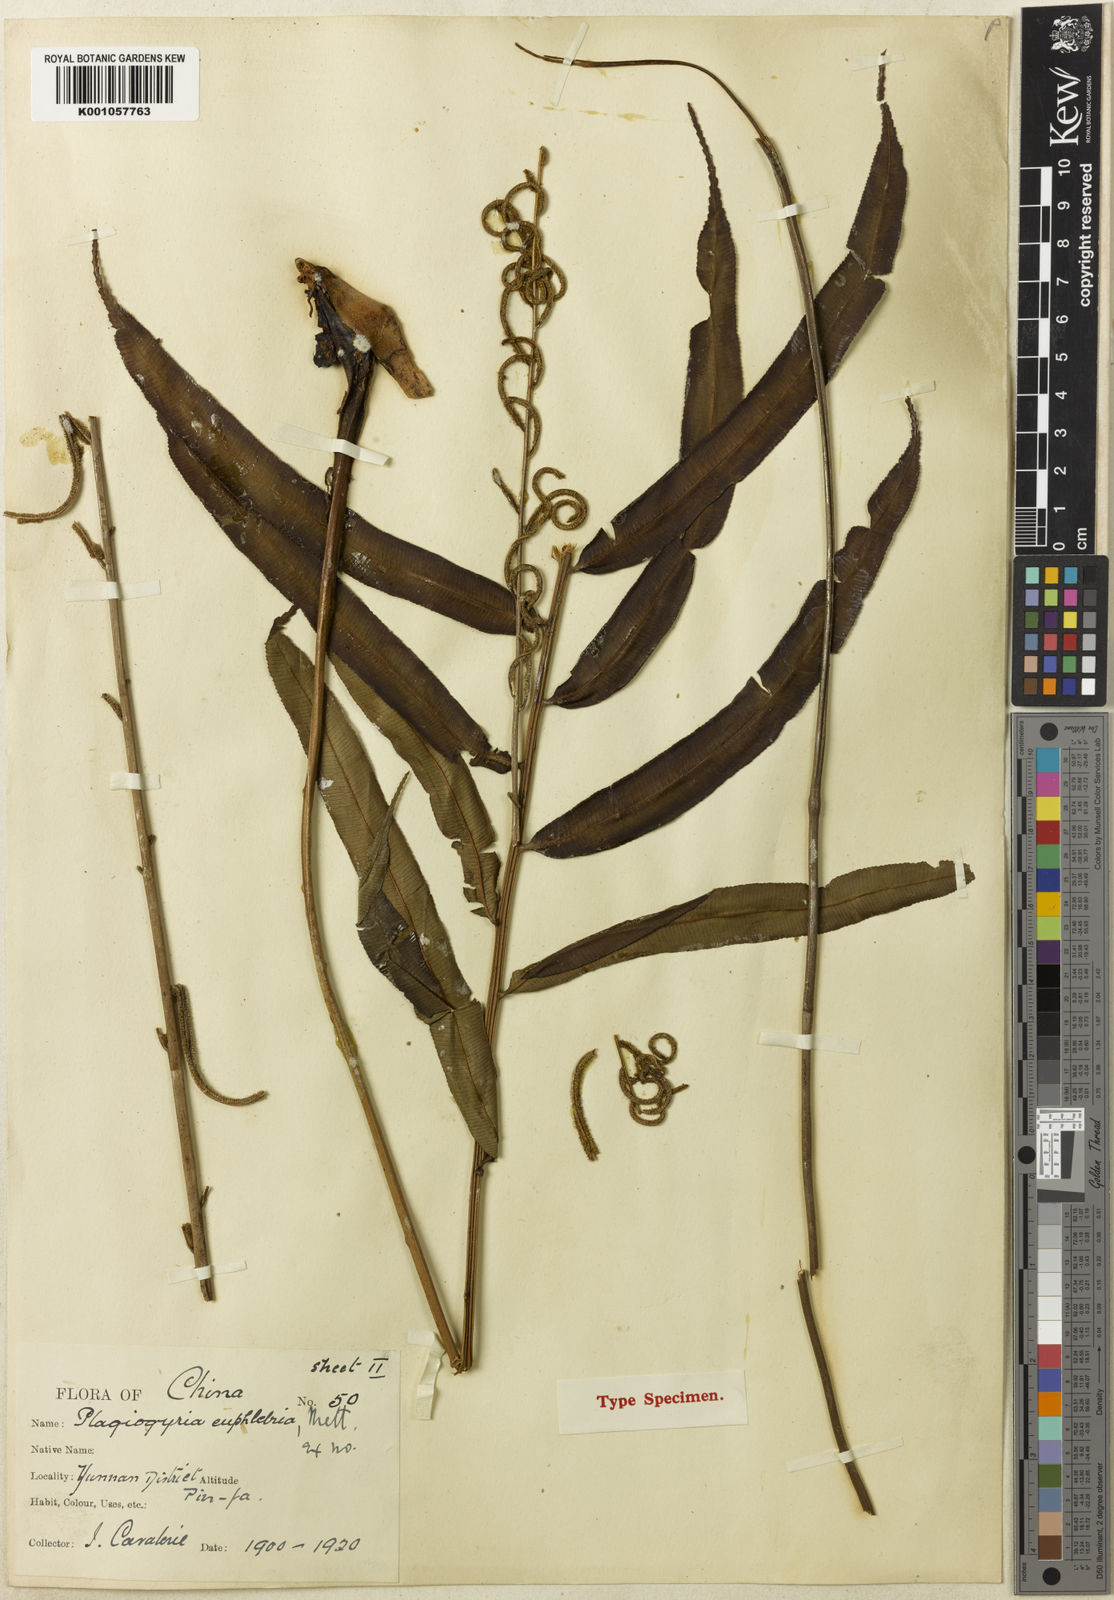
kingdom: Plantae
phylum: Tracheophyta
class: Polypodiopsida
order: Cyatheales
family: Plagiogyriaceae
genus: Plagiogyria
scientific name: Plagiogyria euphlebia
